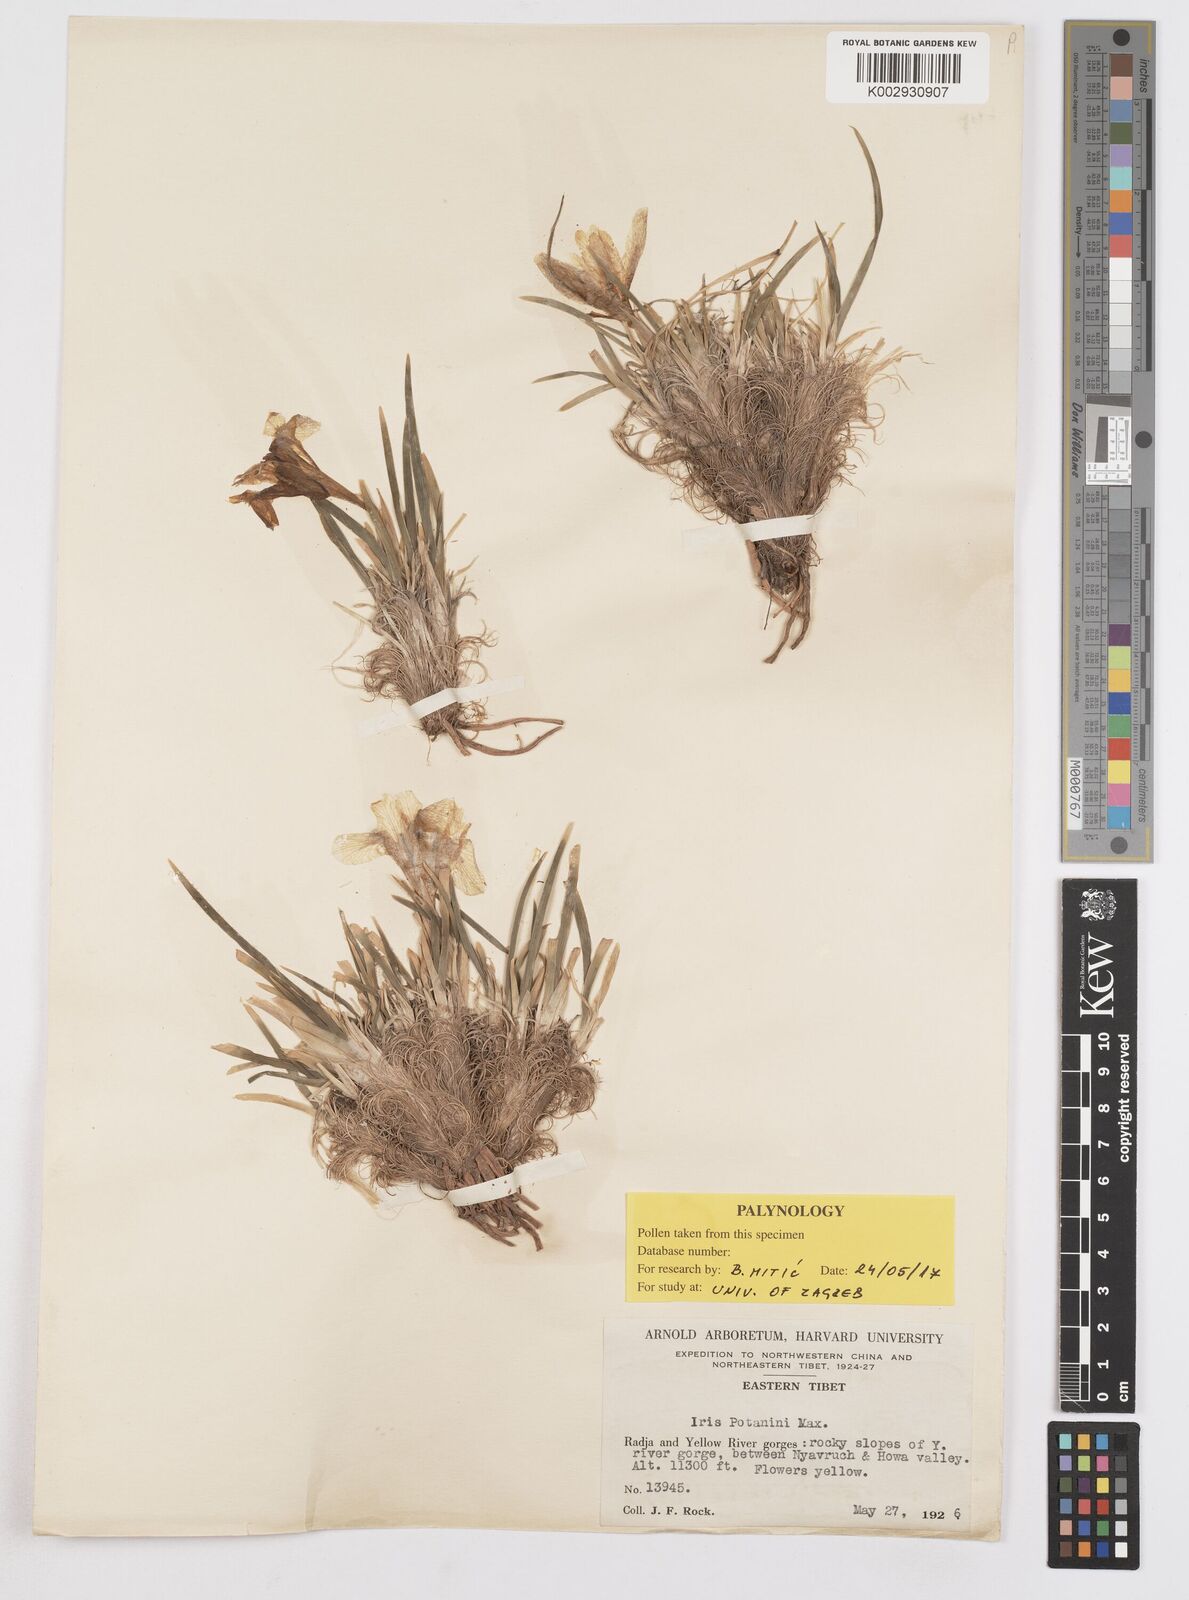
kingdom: Plantae
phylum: Tracheophyta
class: Liliopsida
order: Asparagales
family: Iridaceae
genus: Iris
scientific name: Iris potaninii
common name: Curl-sheath iris
